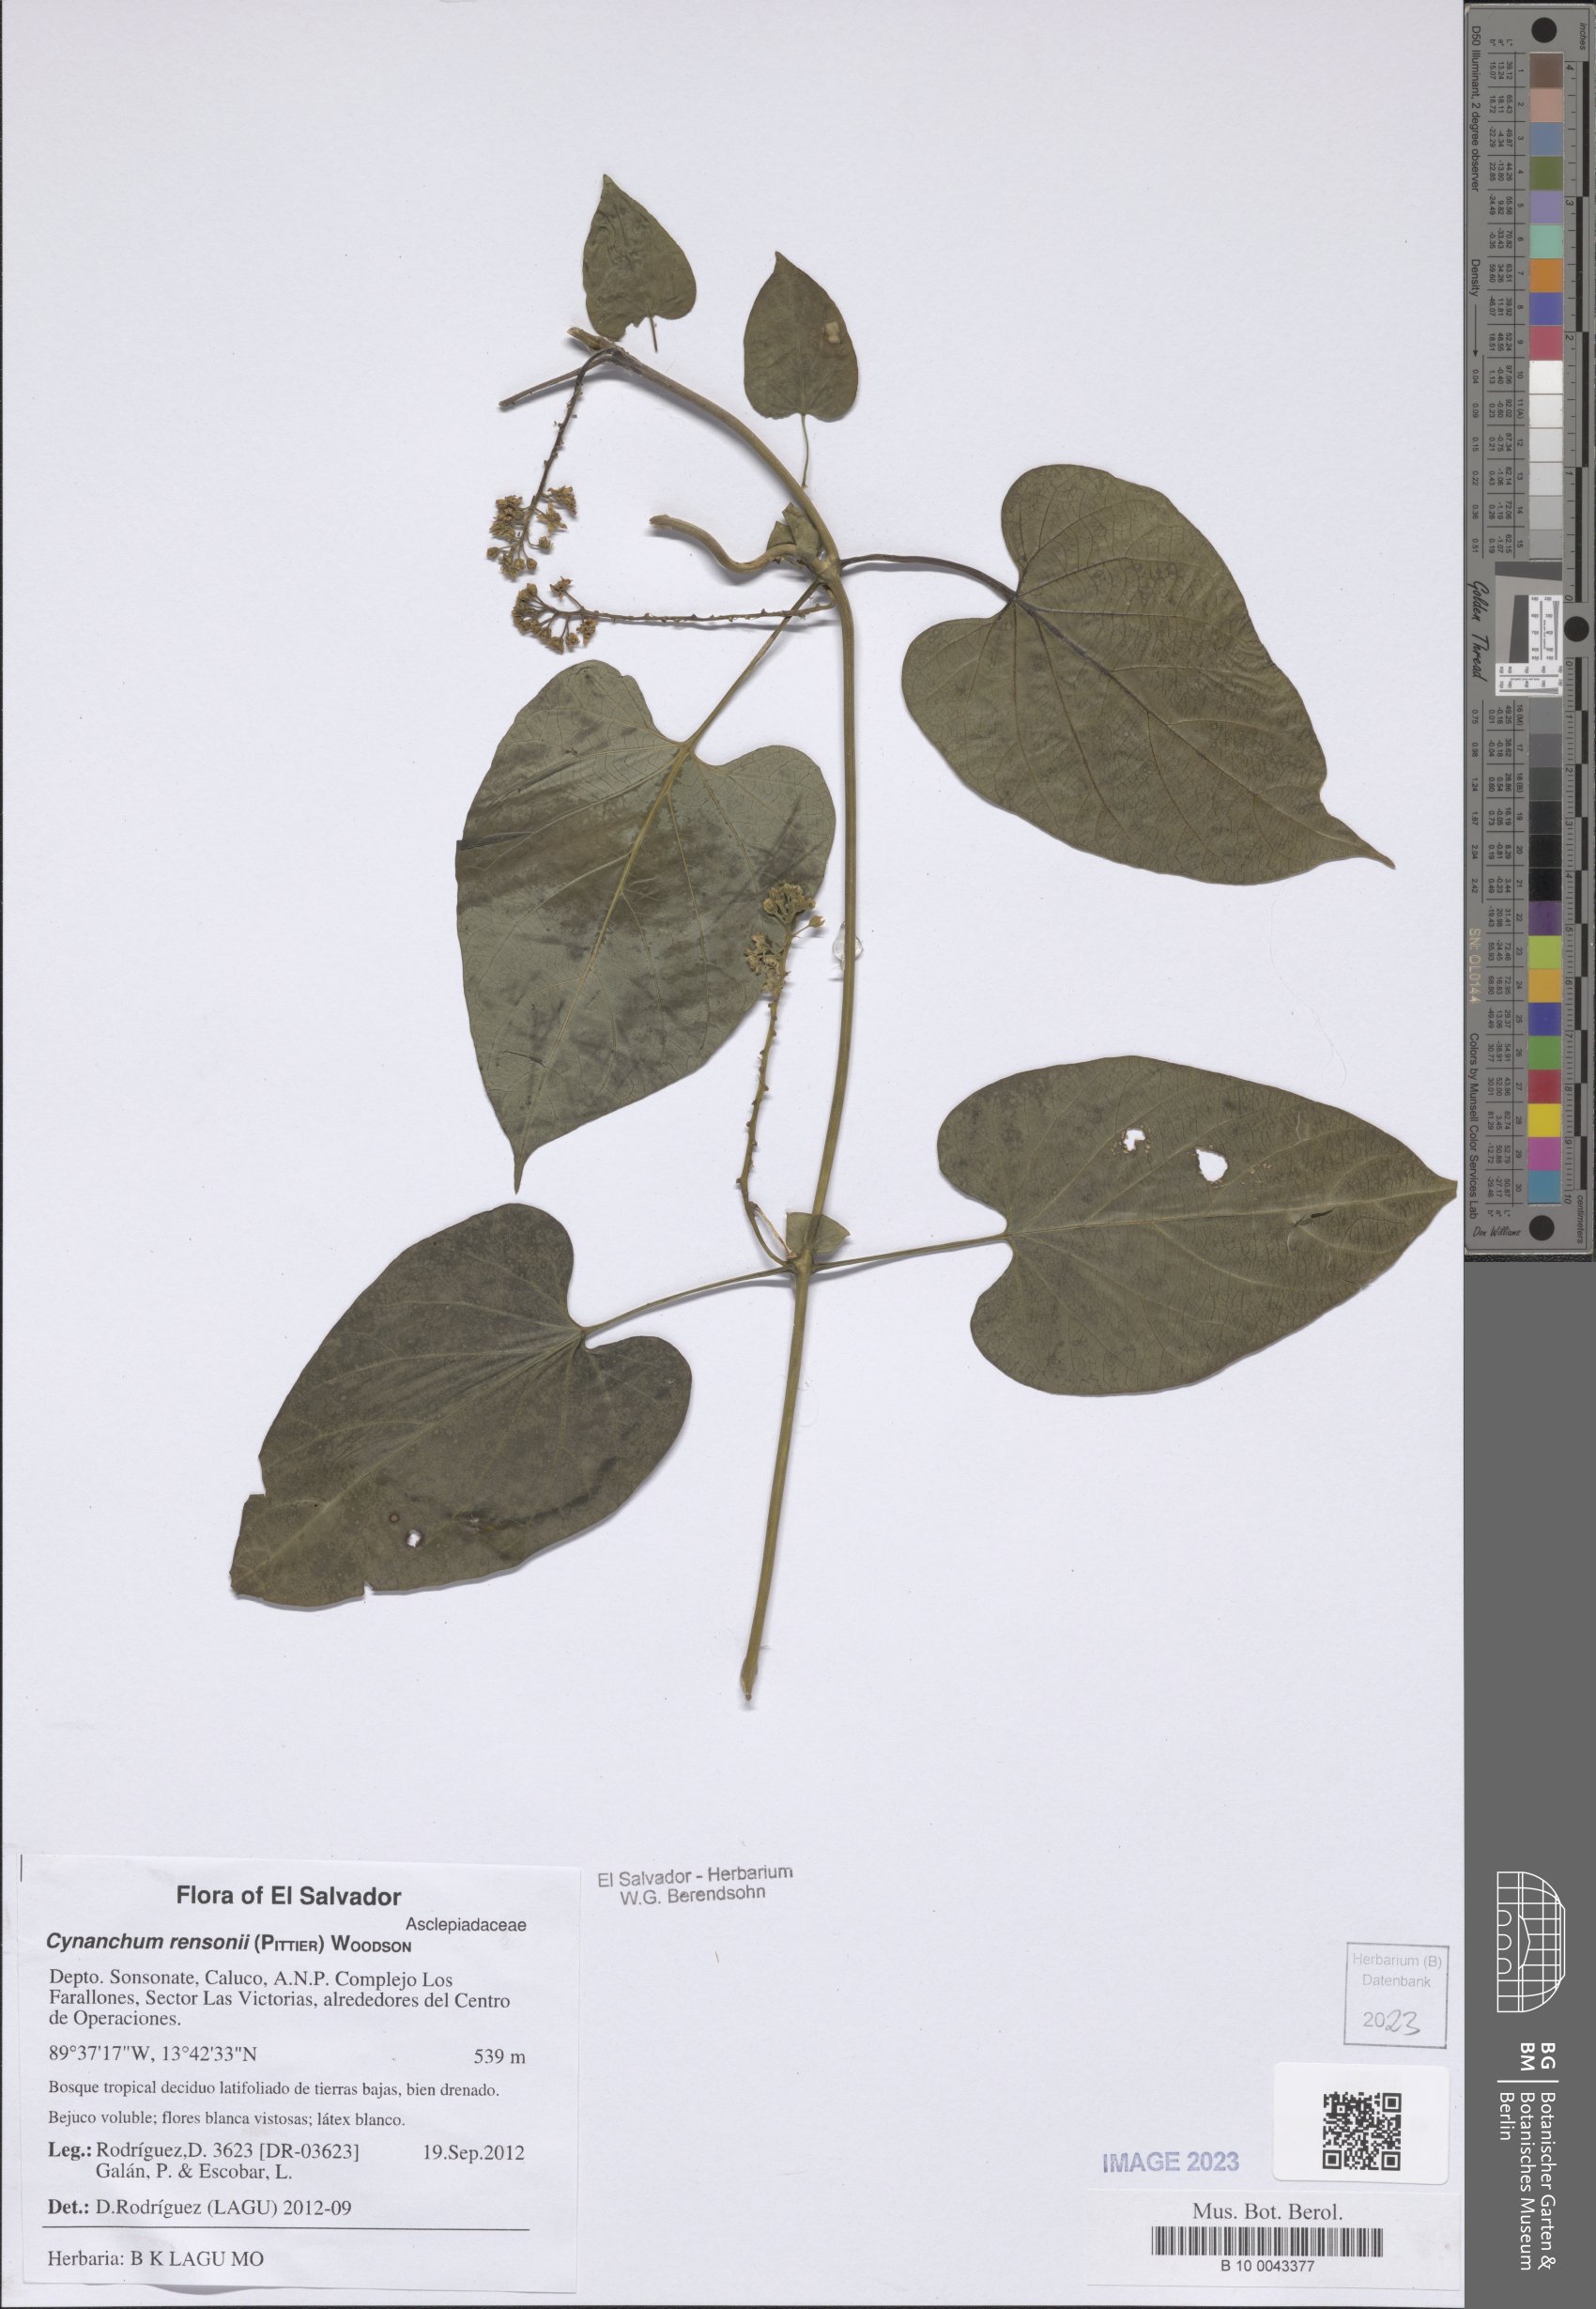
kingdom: Plantae
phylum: Tracheophyta
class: Magnoliopsida
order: Gentianales
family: Apocynaceae
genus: Cynanchum
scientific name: Cynanchum rensonii
